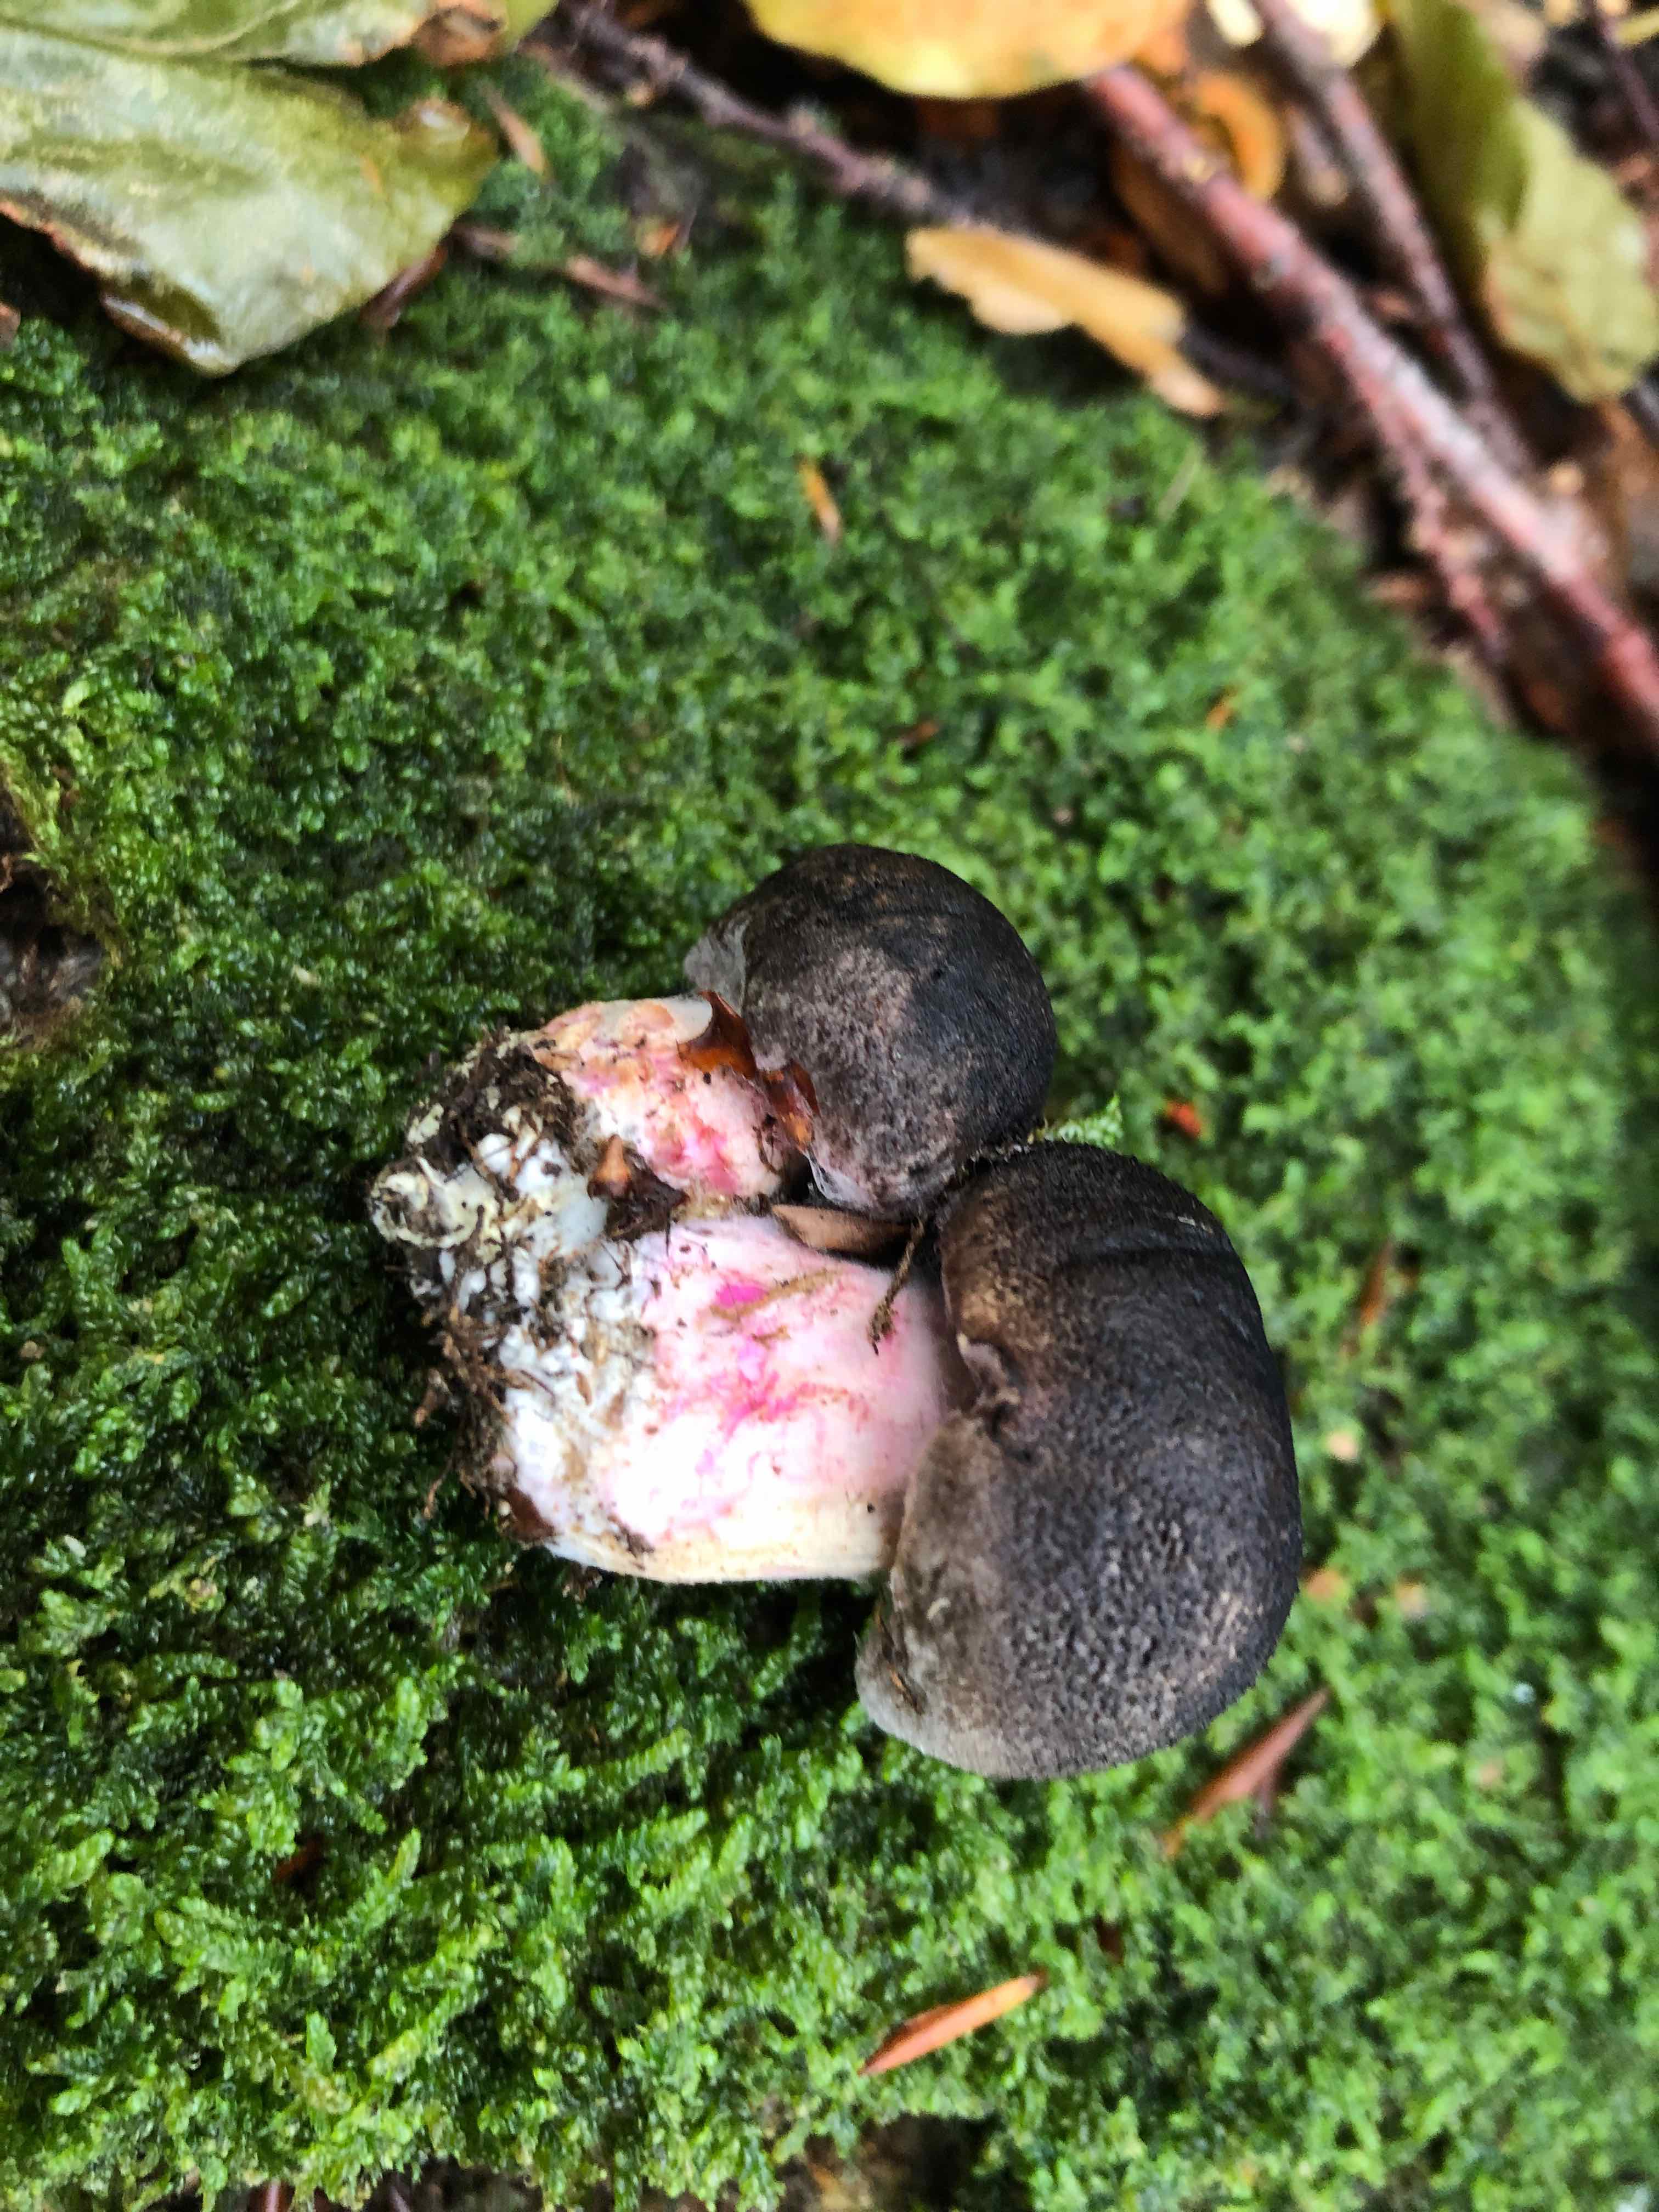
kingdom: Fungi
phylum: Basidiomycota
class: Agaricomycetes
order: Agaricales
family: Tricholomataceae
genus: Tricholoma
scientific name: Tricholoma orirubens
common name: rødbladet ridderhat
